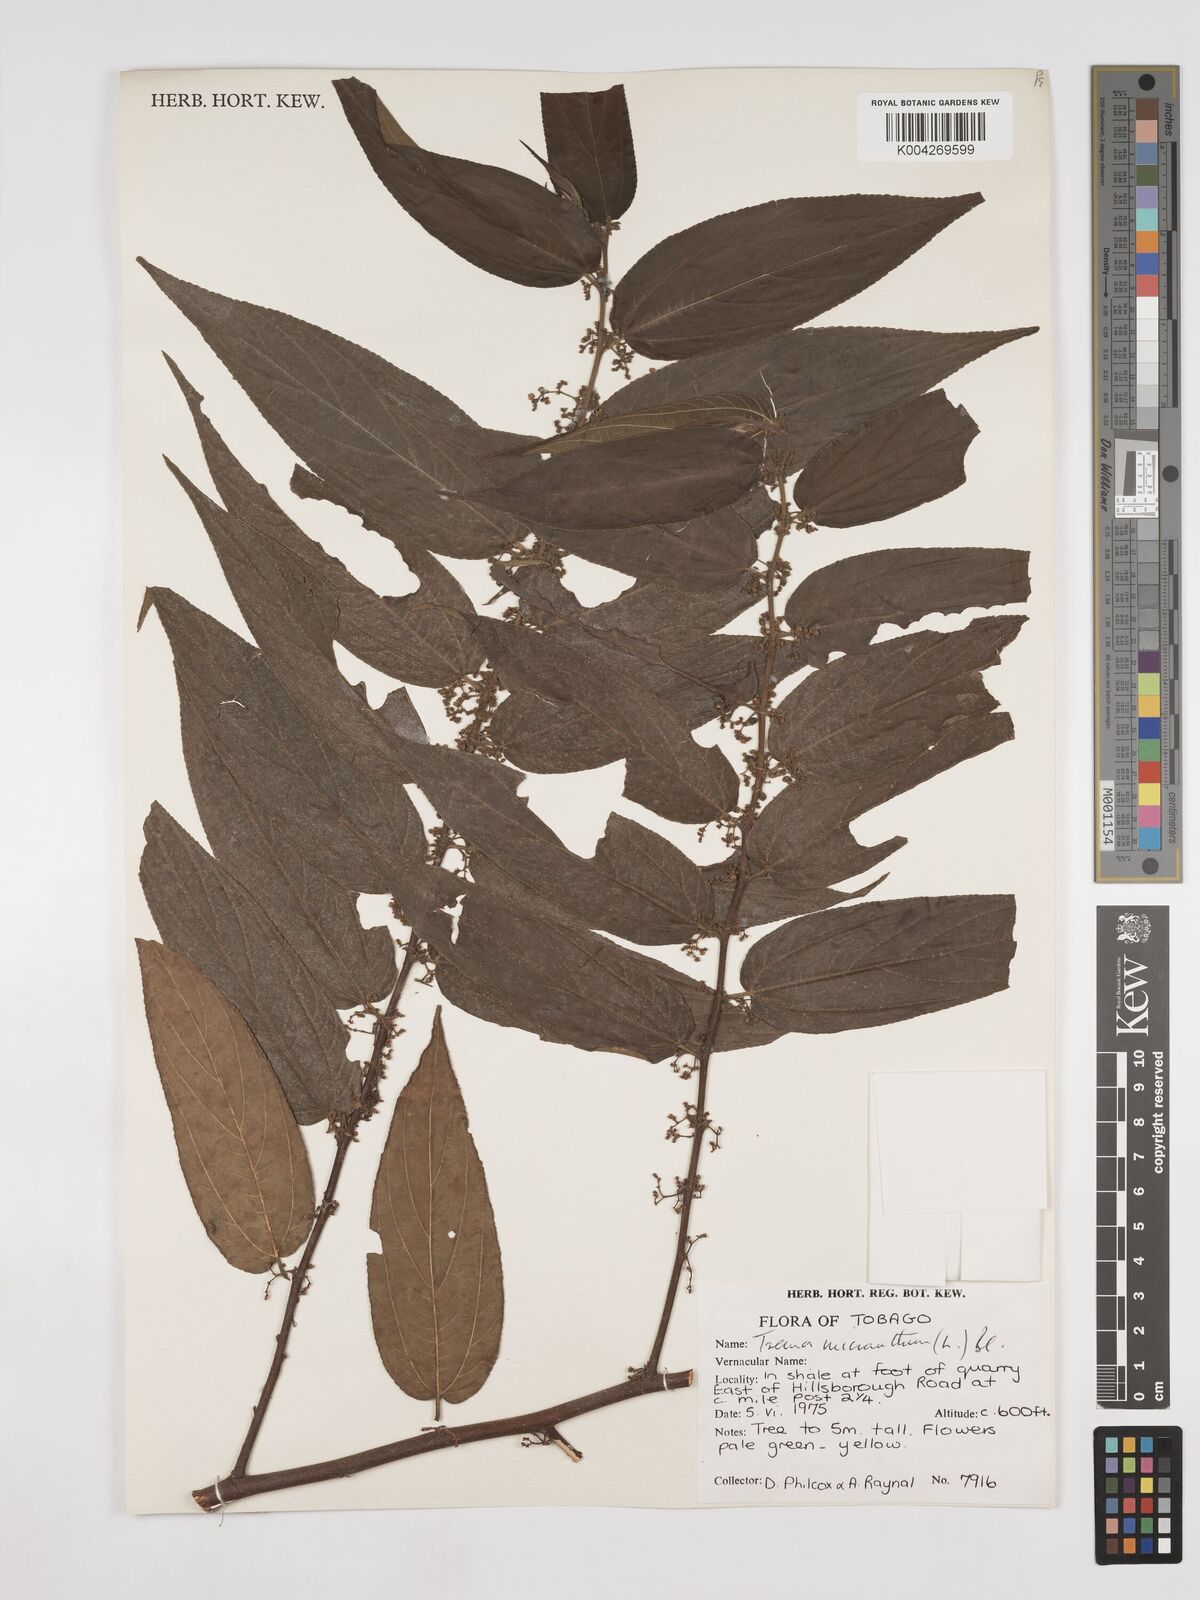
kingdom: Plantae
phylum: Tracheophyta
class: Magnoliopsida
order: Rosales
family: Cannabaceae
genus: Trema
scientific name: Trema micranthum
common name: Jamaican nettletree
